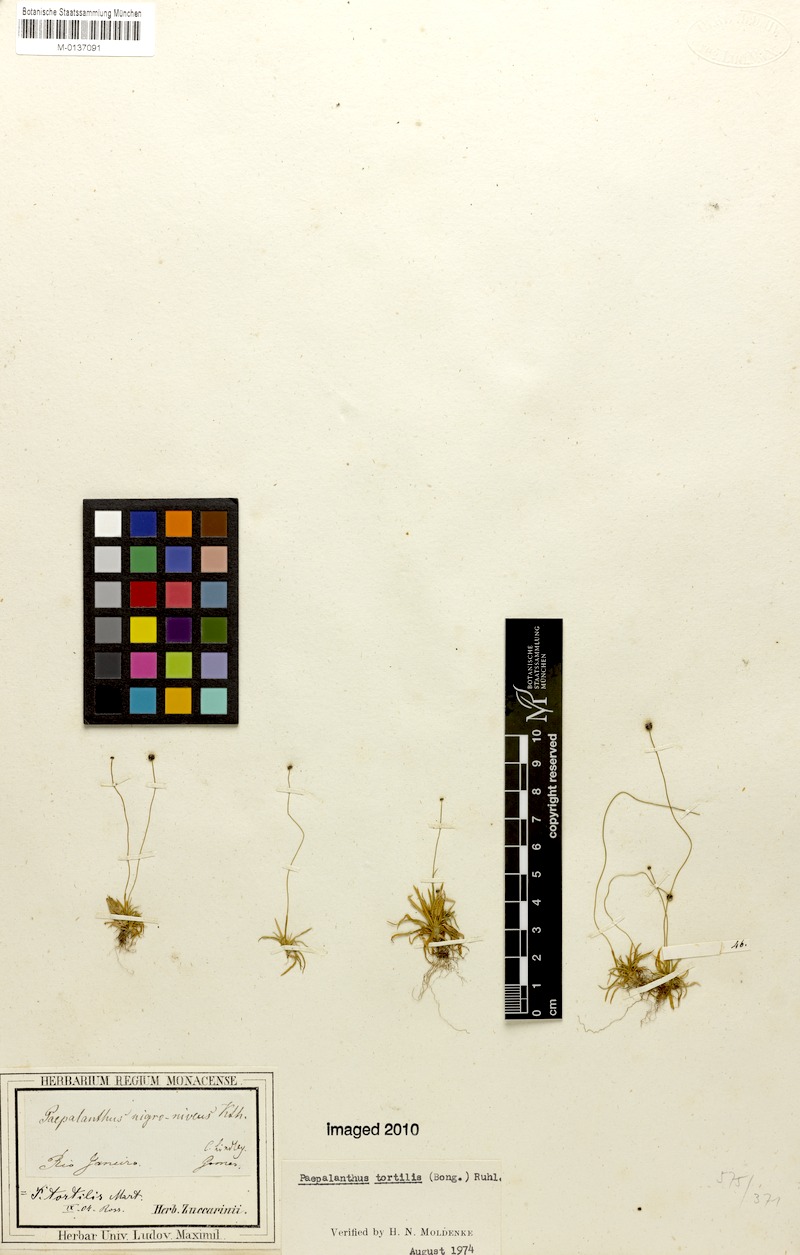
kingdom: Plantae
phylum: Tracheophyta
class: Liliopsida
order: Poales
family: Eriocaulaceae
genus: Paepalanthus
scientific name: Paepalanthus tortilis
